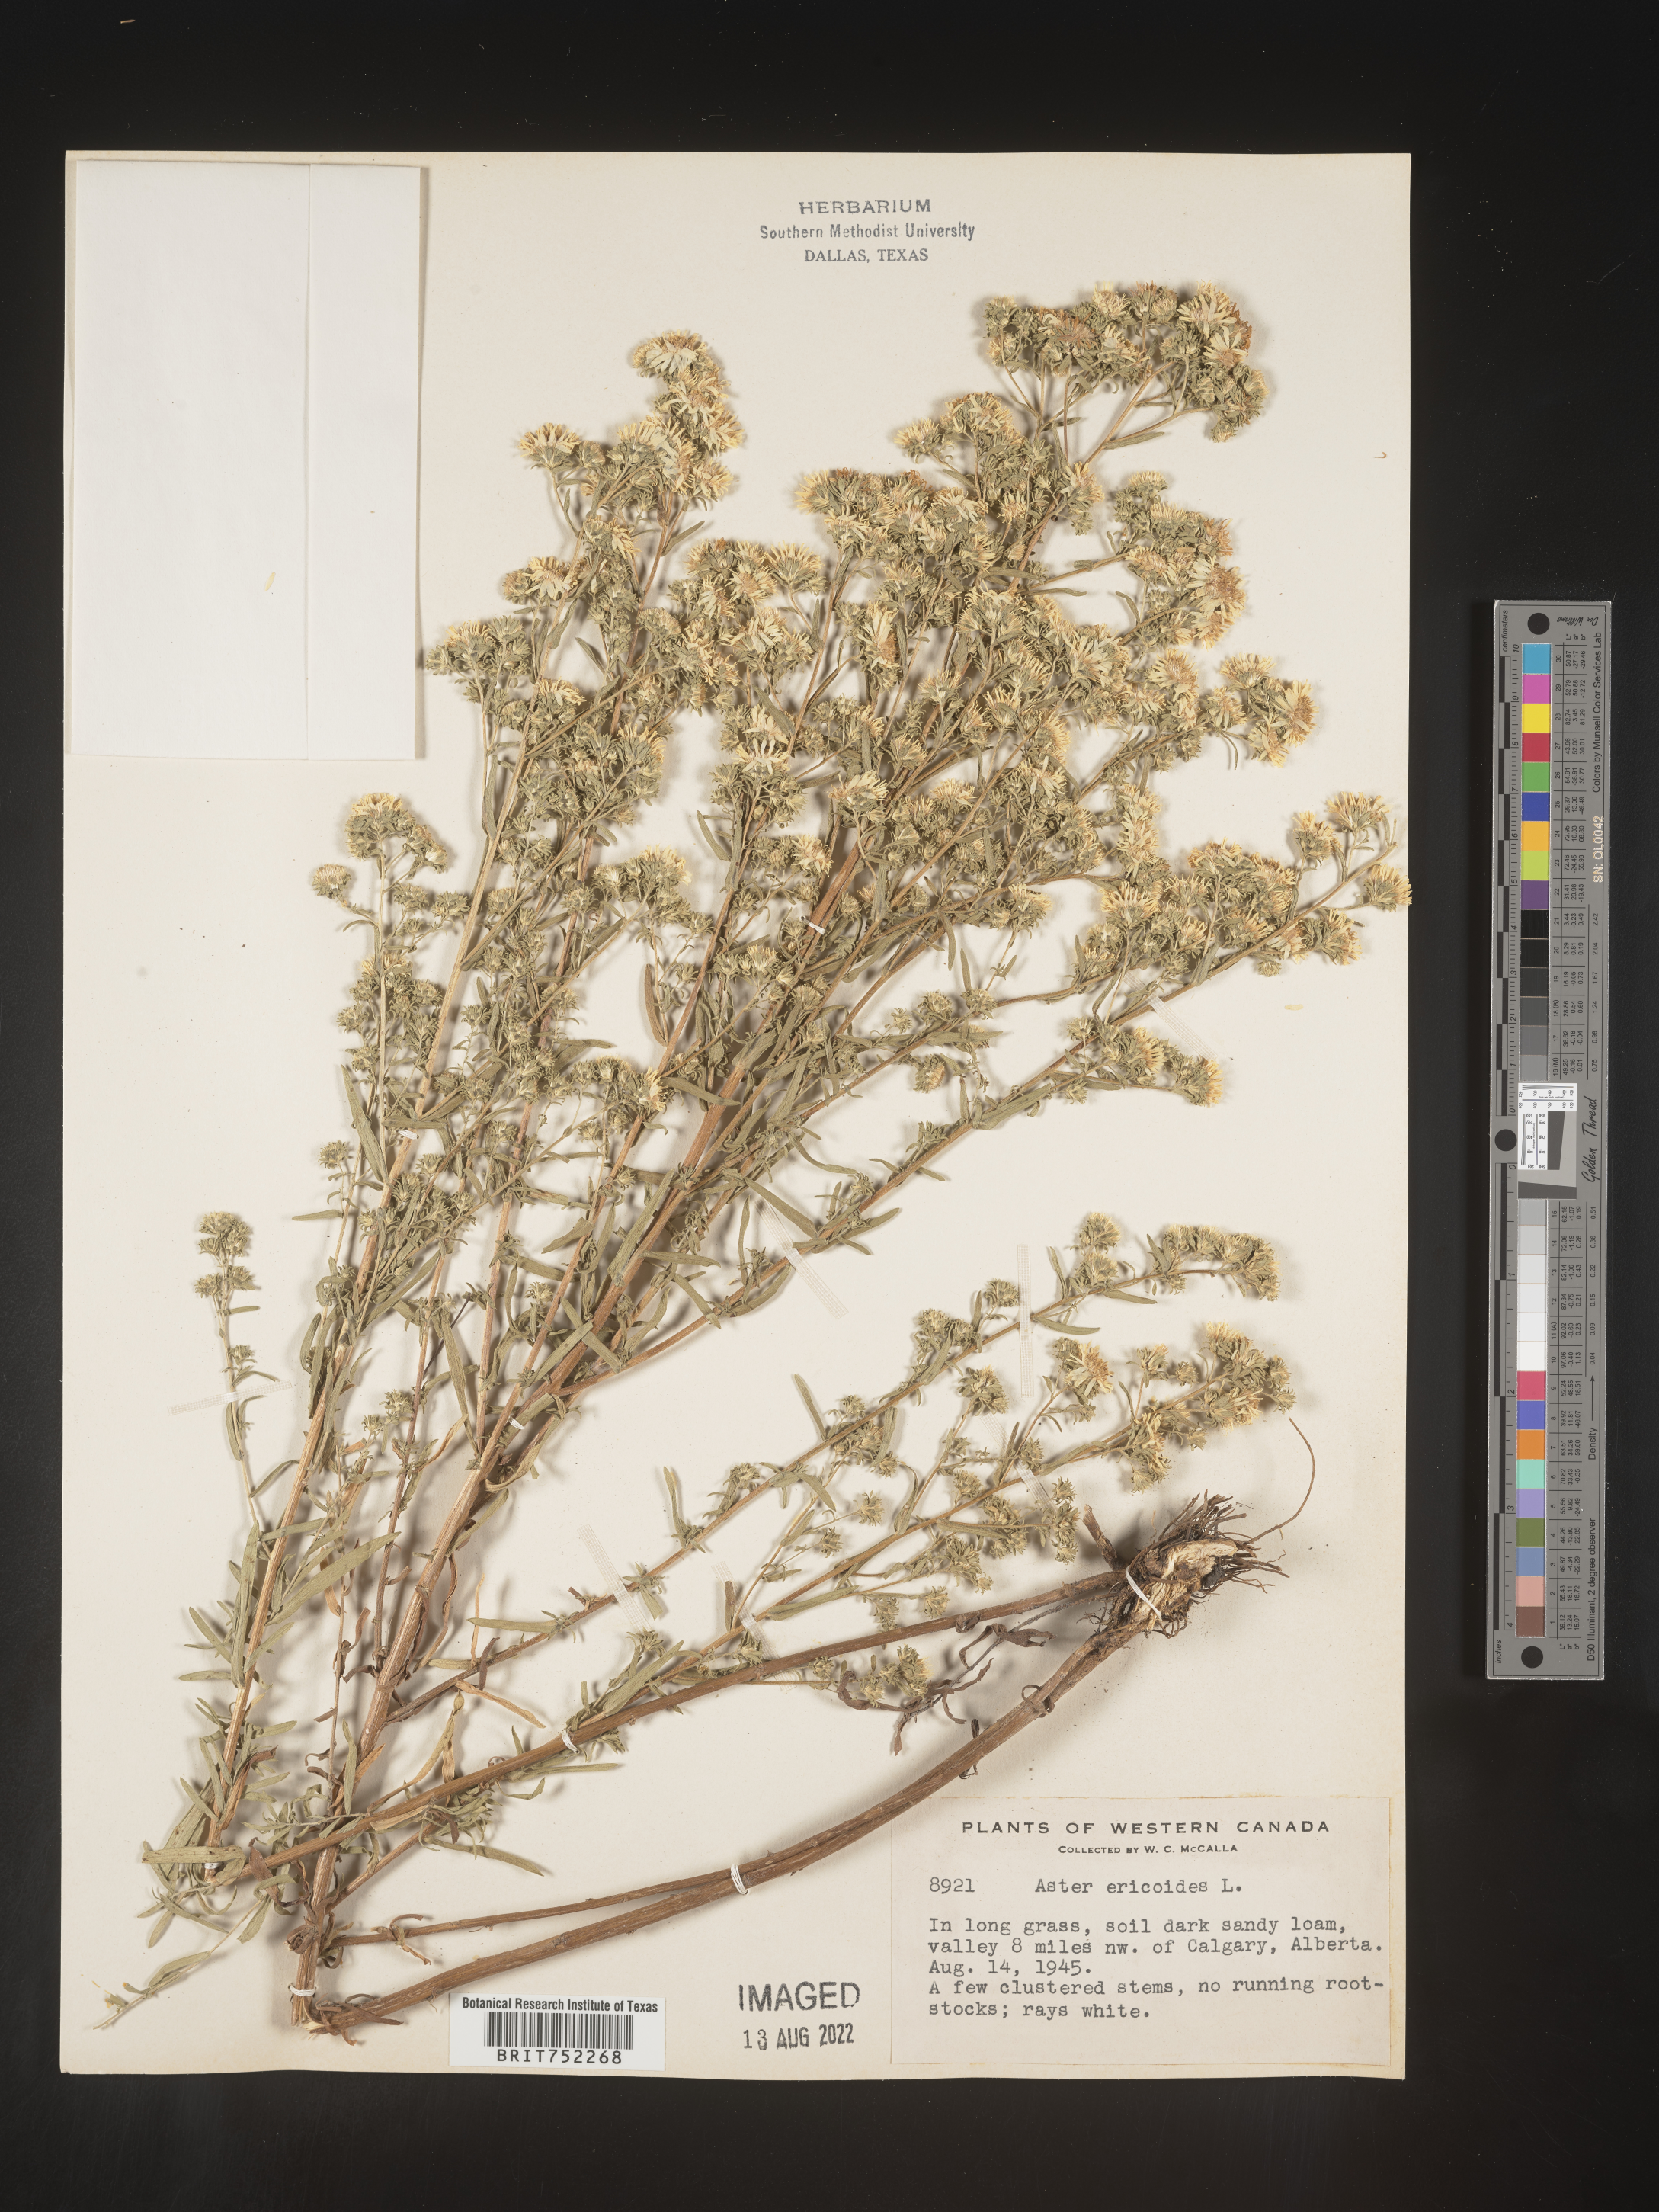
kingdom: Plantae
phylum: Tracheophyta
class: Magnoliopsida
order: Asterales
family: Asteraceae
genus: Symphyotrichum
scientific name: Symphyotrichum ericoides
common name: Heath aster
